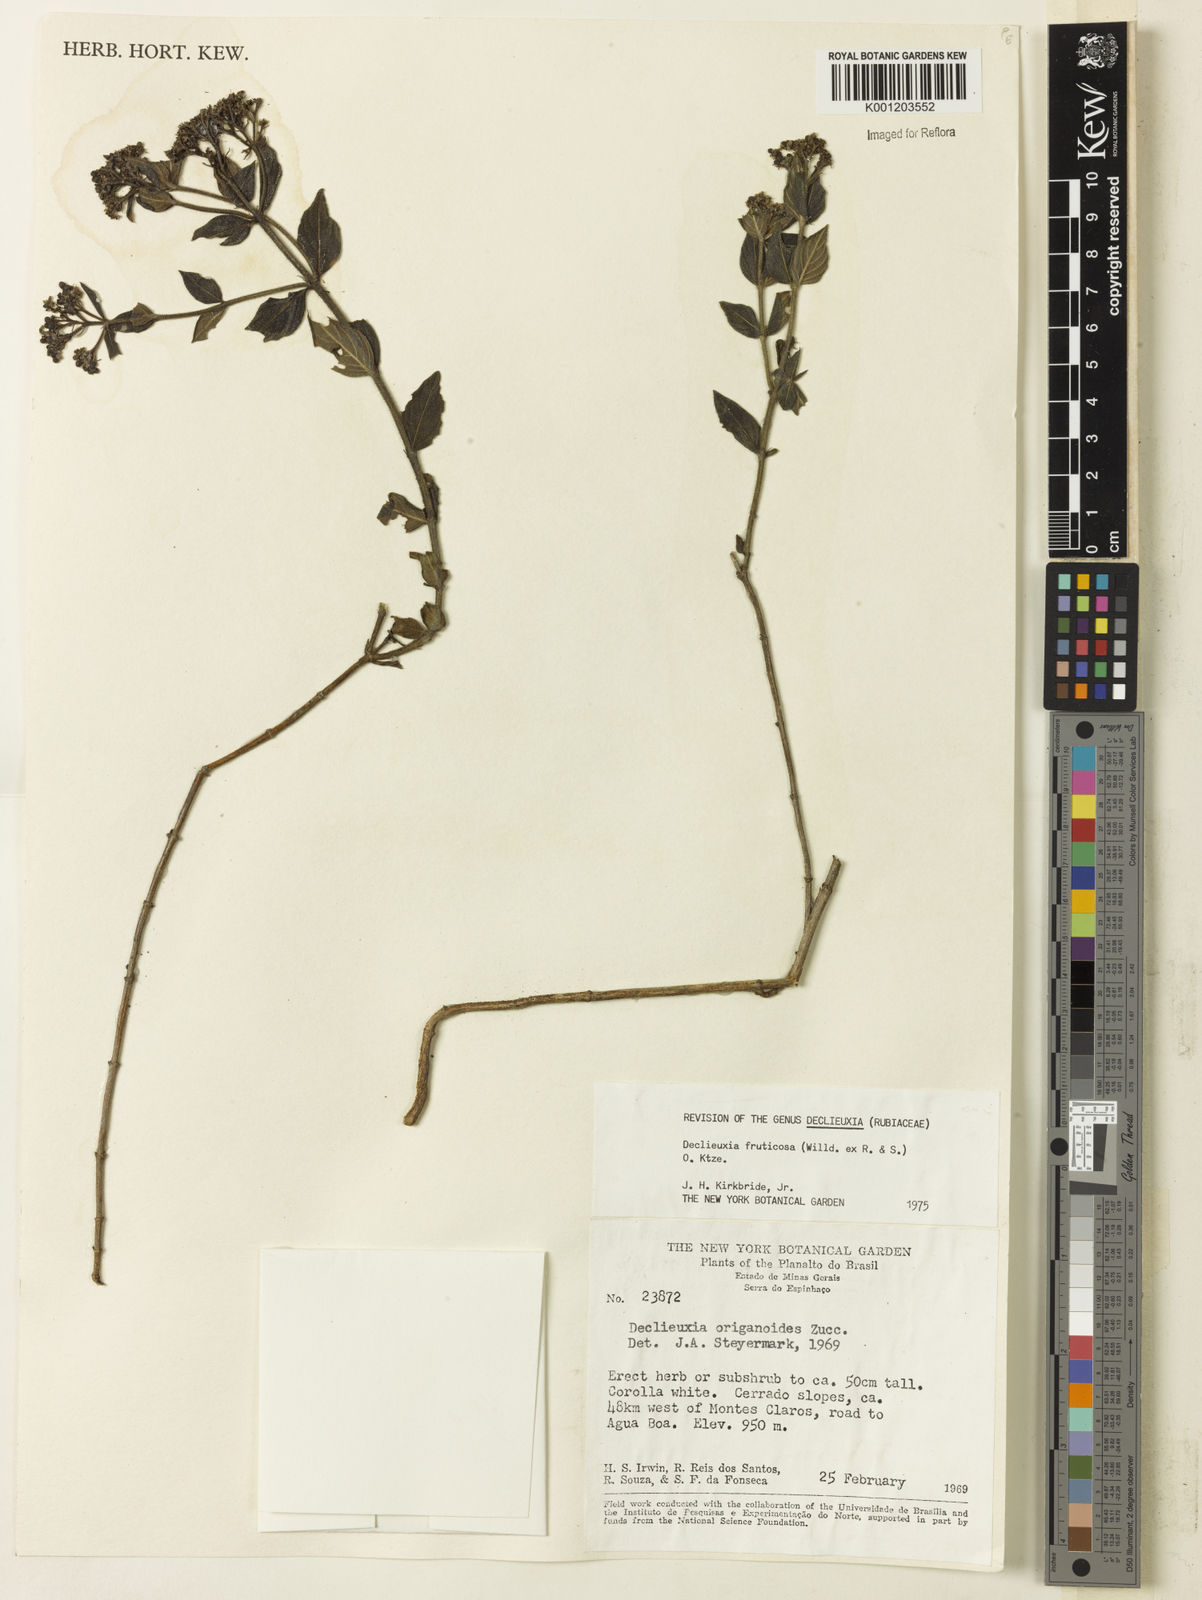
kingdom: Plantae
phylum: Tracheophyta
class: Magnoliopsida
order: Gentianales
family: Rubiaceae
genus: Declieuxia
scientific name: Declieuxia fruticosa
